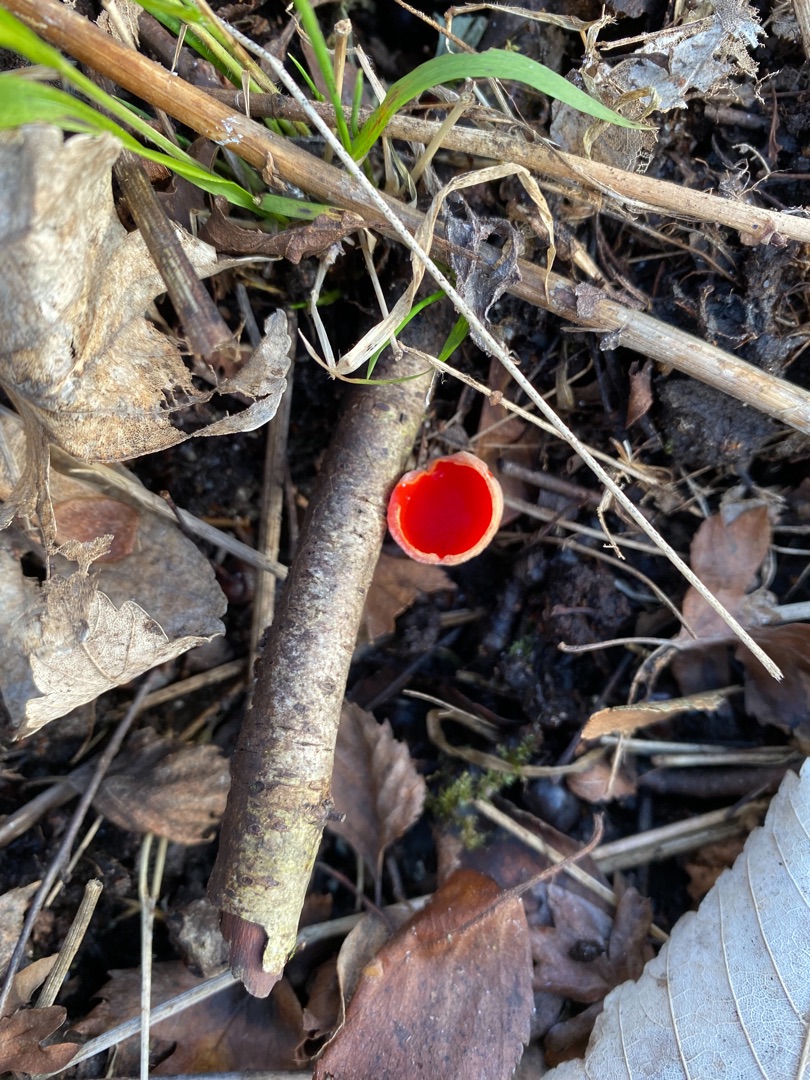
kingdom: Fungi
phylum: Ascomycota
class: Pezizomycetes
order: Pezizales
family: Sarcoscyphaceae
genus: Sarcoscypha
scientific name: Sarcoscypha
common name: Pragtbæger
